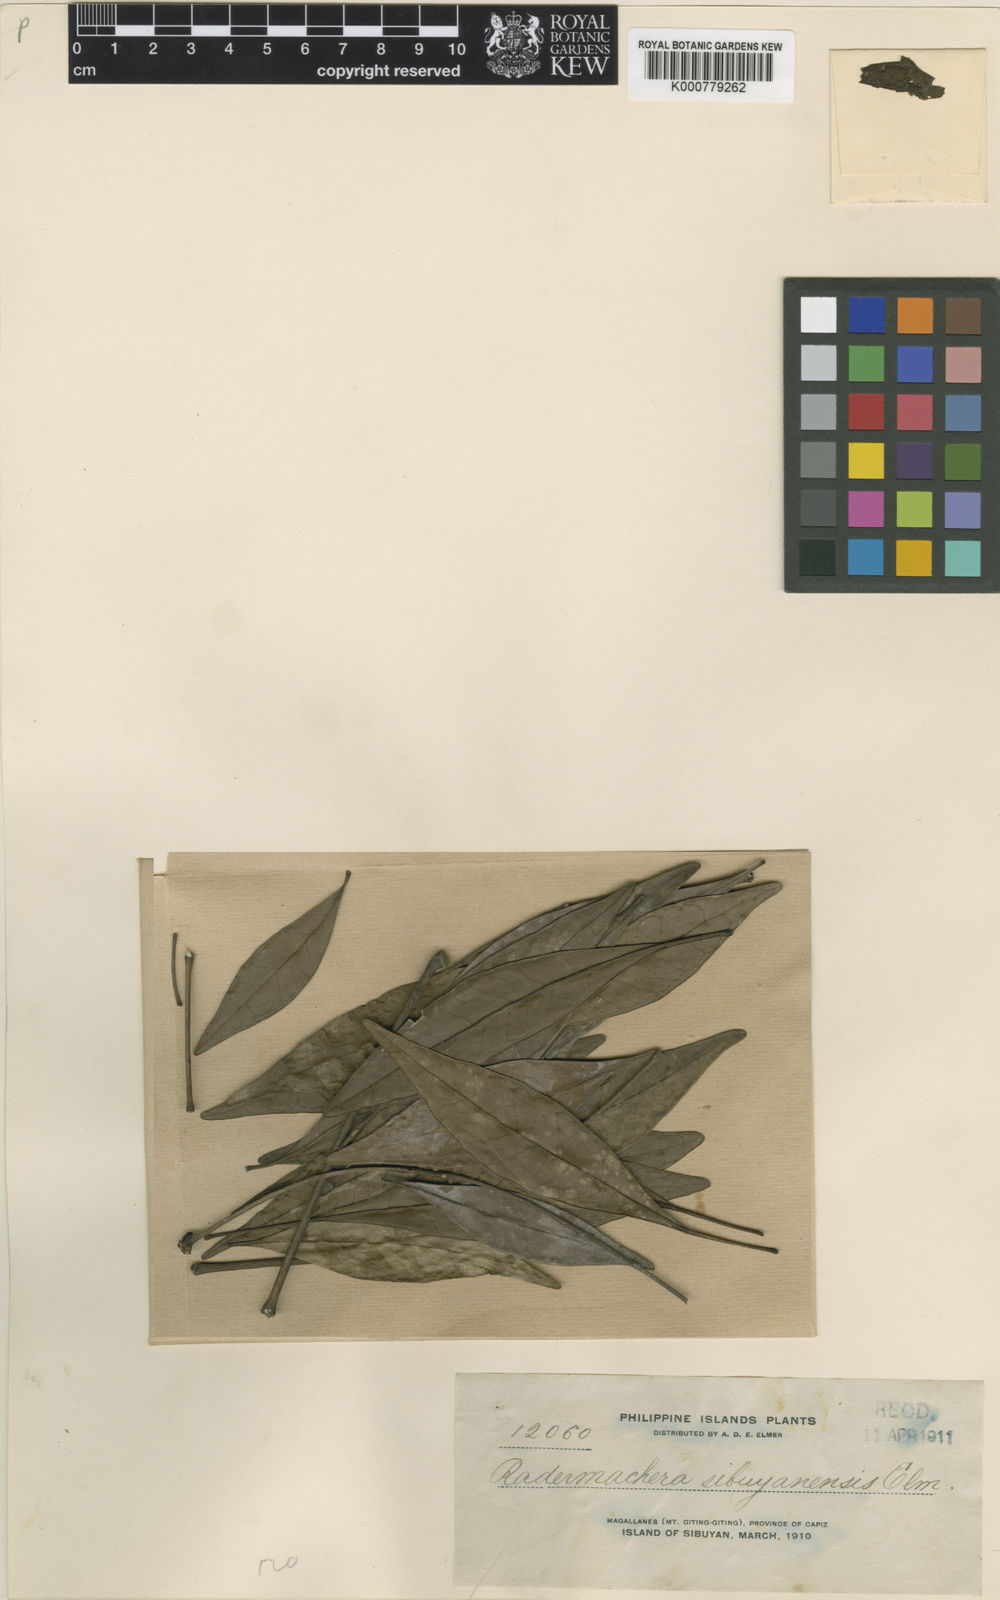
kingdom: Plantae
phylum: Tracheophyta
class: Magnoliopsida
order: Lamiales
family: Bignoniaceae
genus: Radermachera
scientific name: Radermachera gigantea
